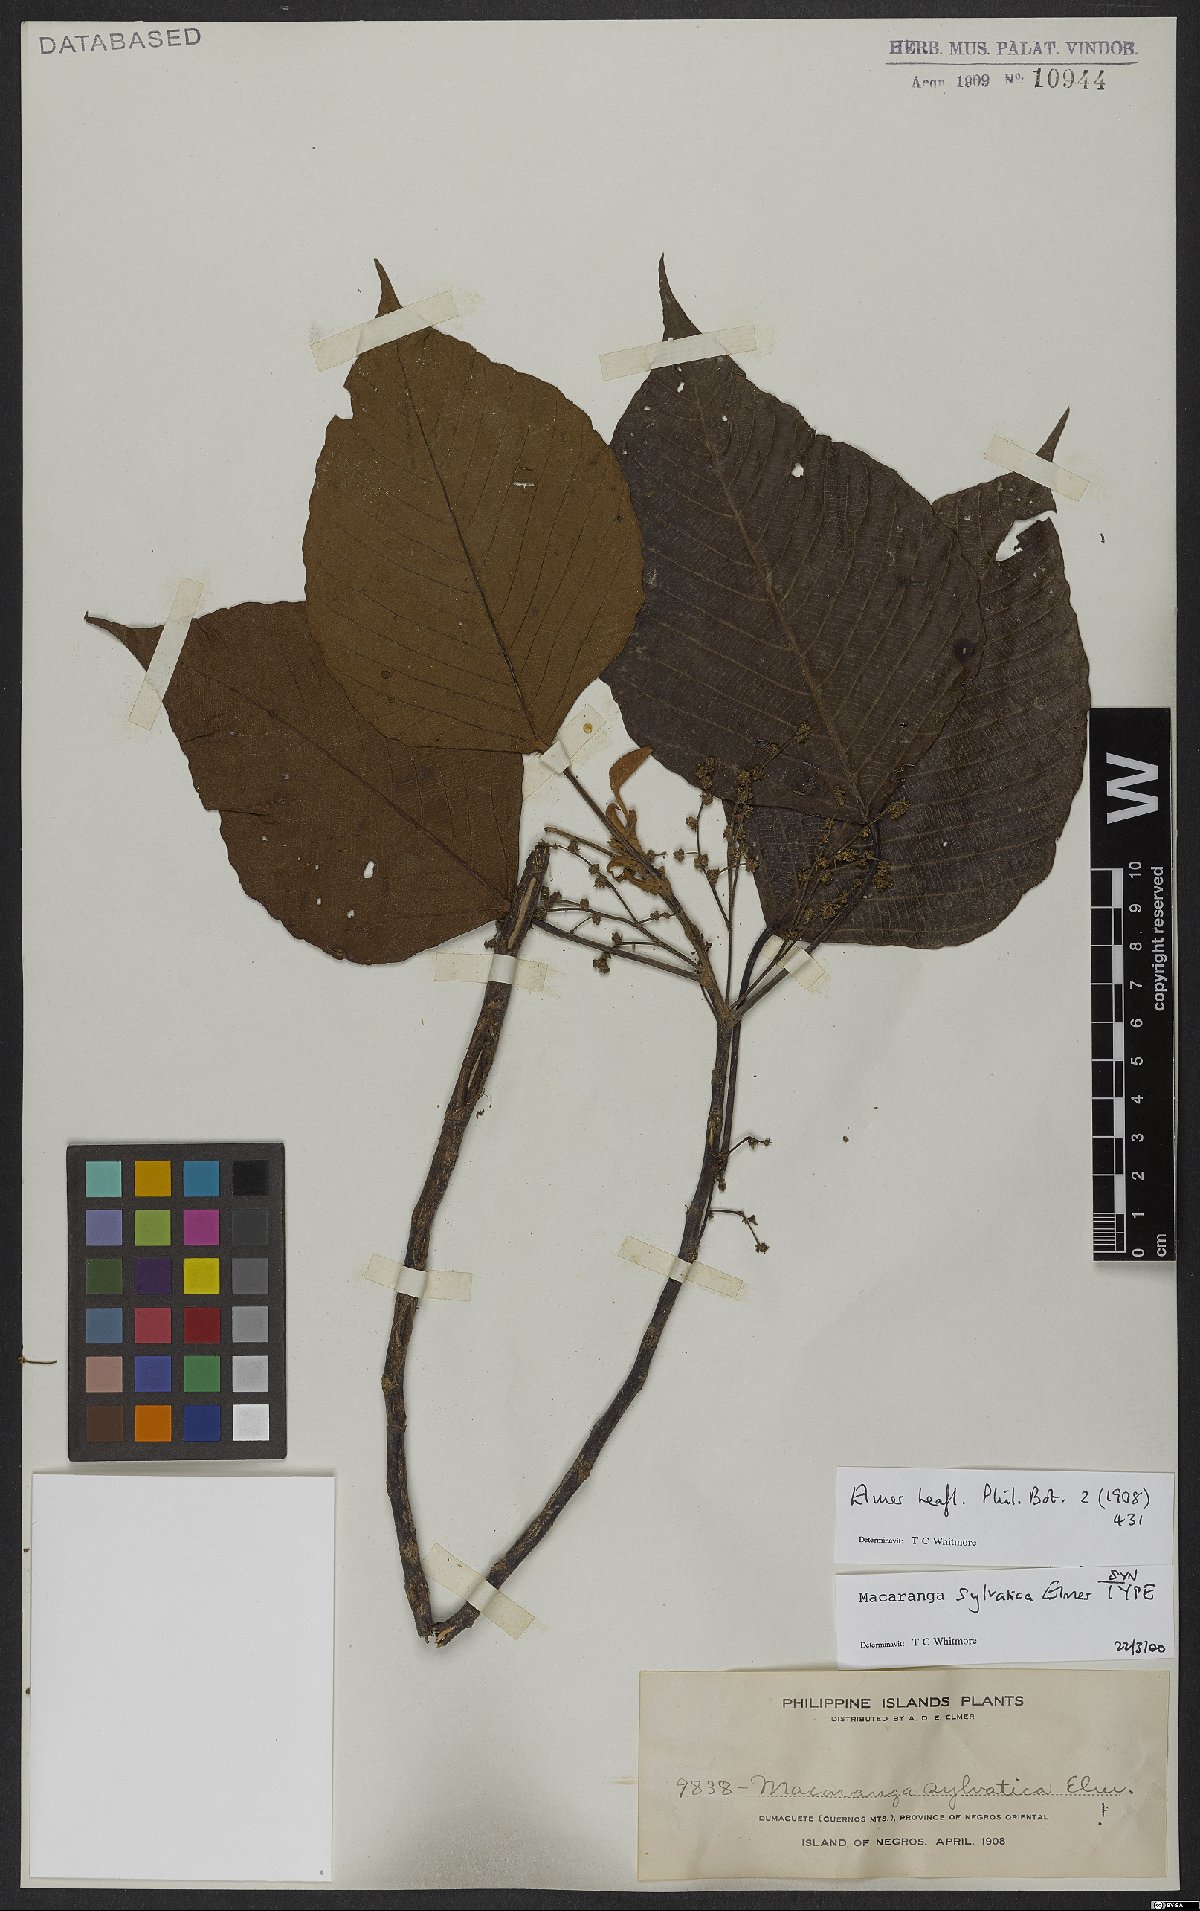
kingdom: Plantae
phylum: Tracheophyta
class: Magnoliopsida
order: Malpighiales
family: Euphorbiaceae
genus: Macaranga
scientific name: Macaranga sylvatica
